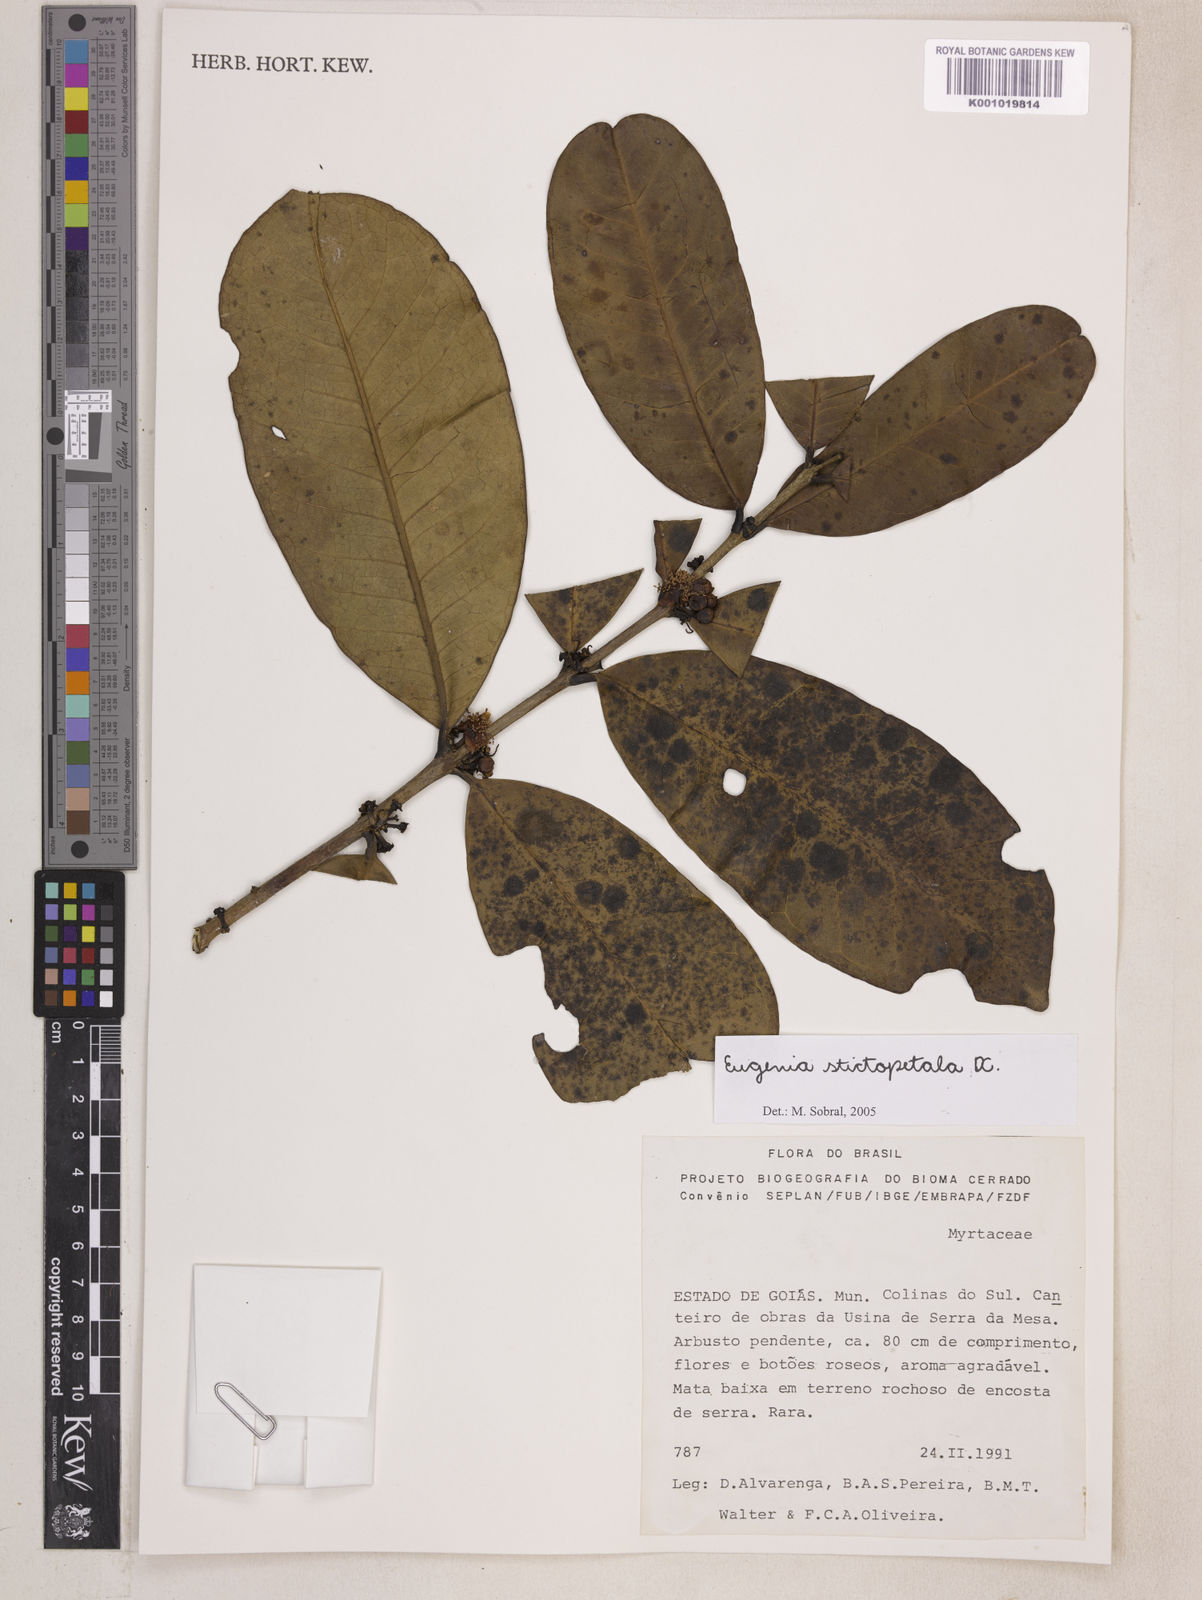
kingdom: Plantae
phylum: Tracheophyta
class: Magnoliopsida
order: Myrtales
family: Myrtaceae
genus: Eugenia
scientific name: Eugenia stictopetala
